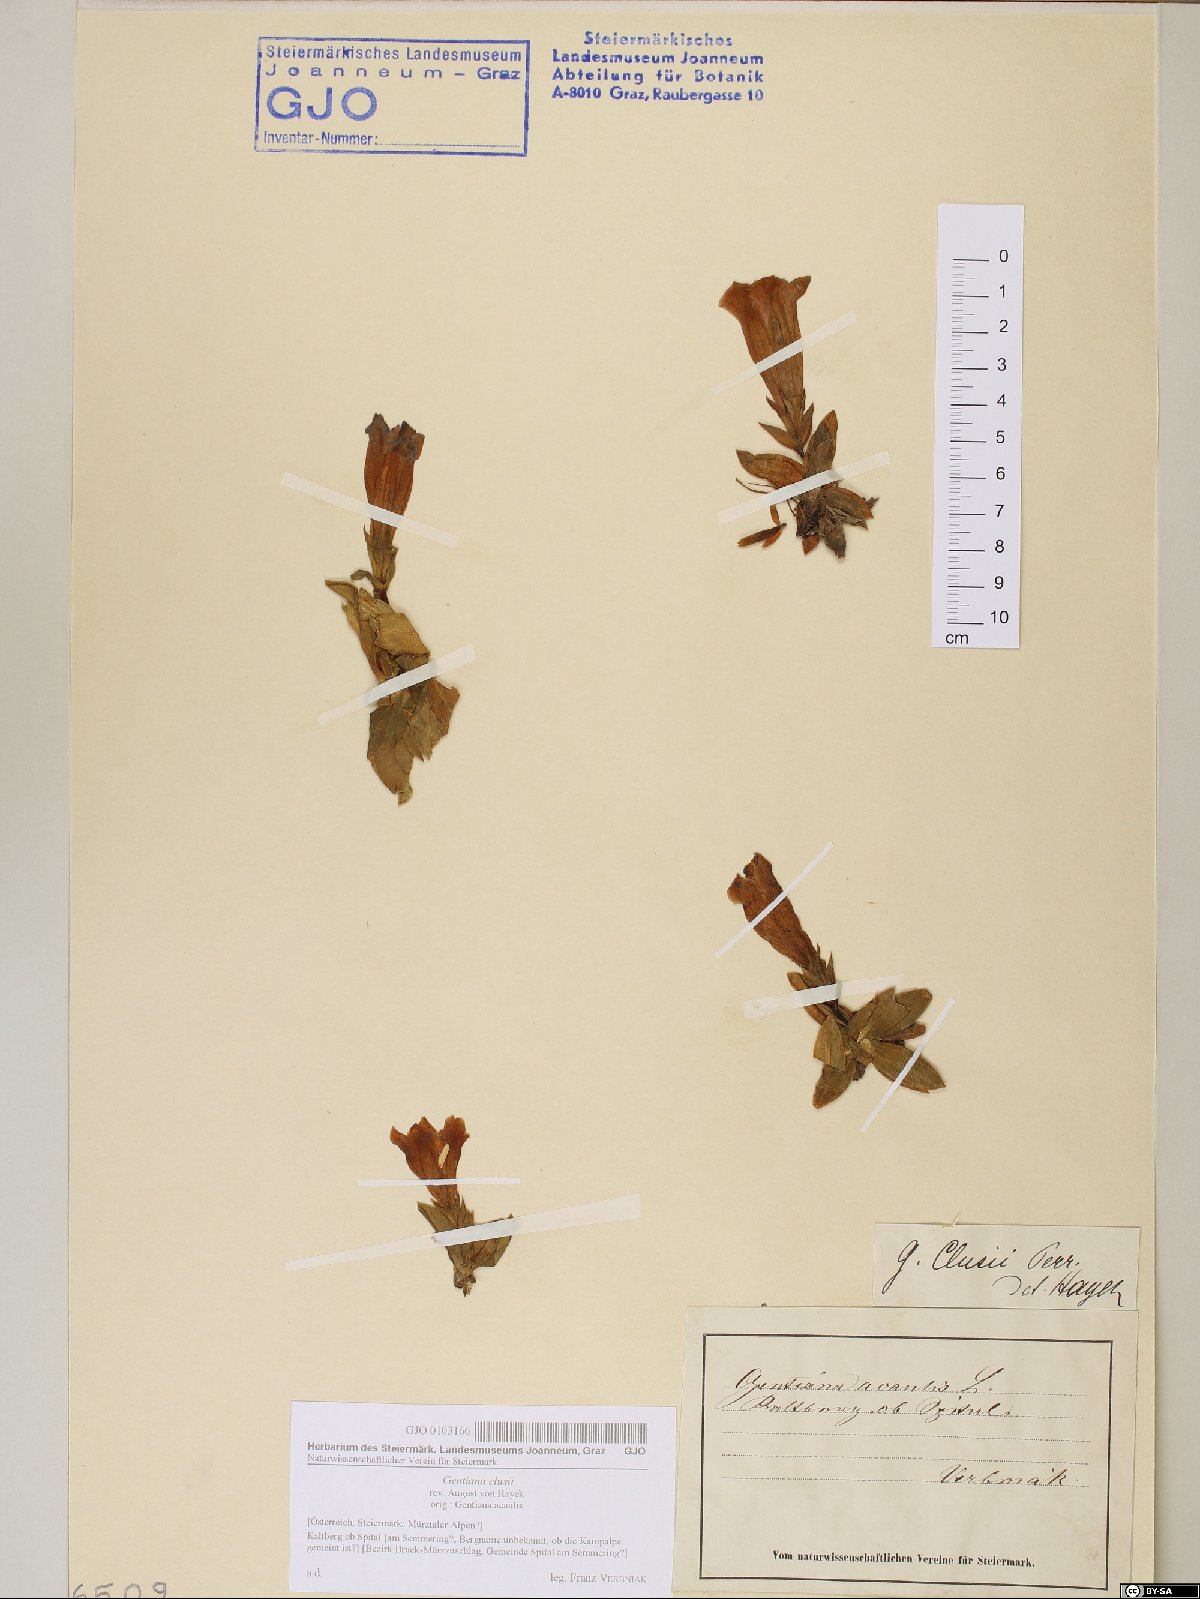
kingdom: Plantae
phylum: Tracheophyta
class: Magnoliopsida
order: Gentianales
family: Gentianaceae
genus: Gentiana
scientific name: Gentiana clusii
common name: Trumpet gentian
